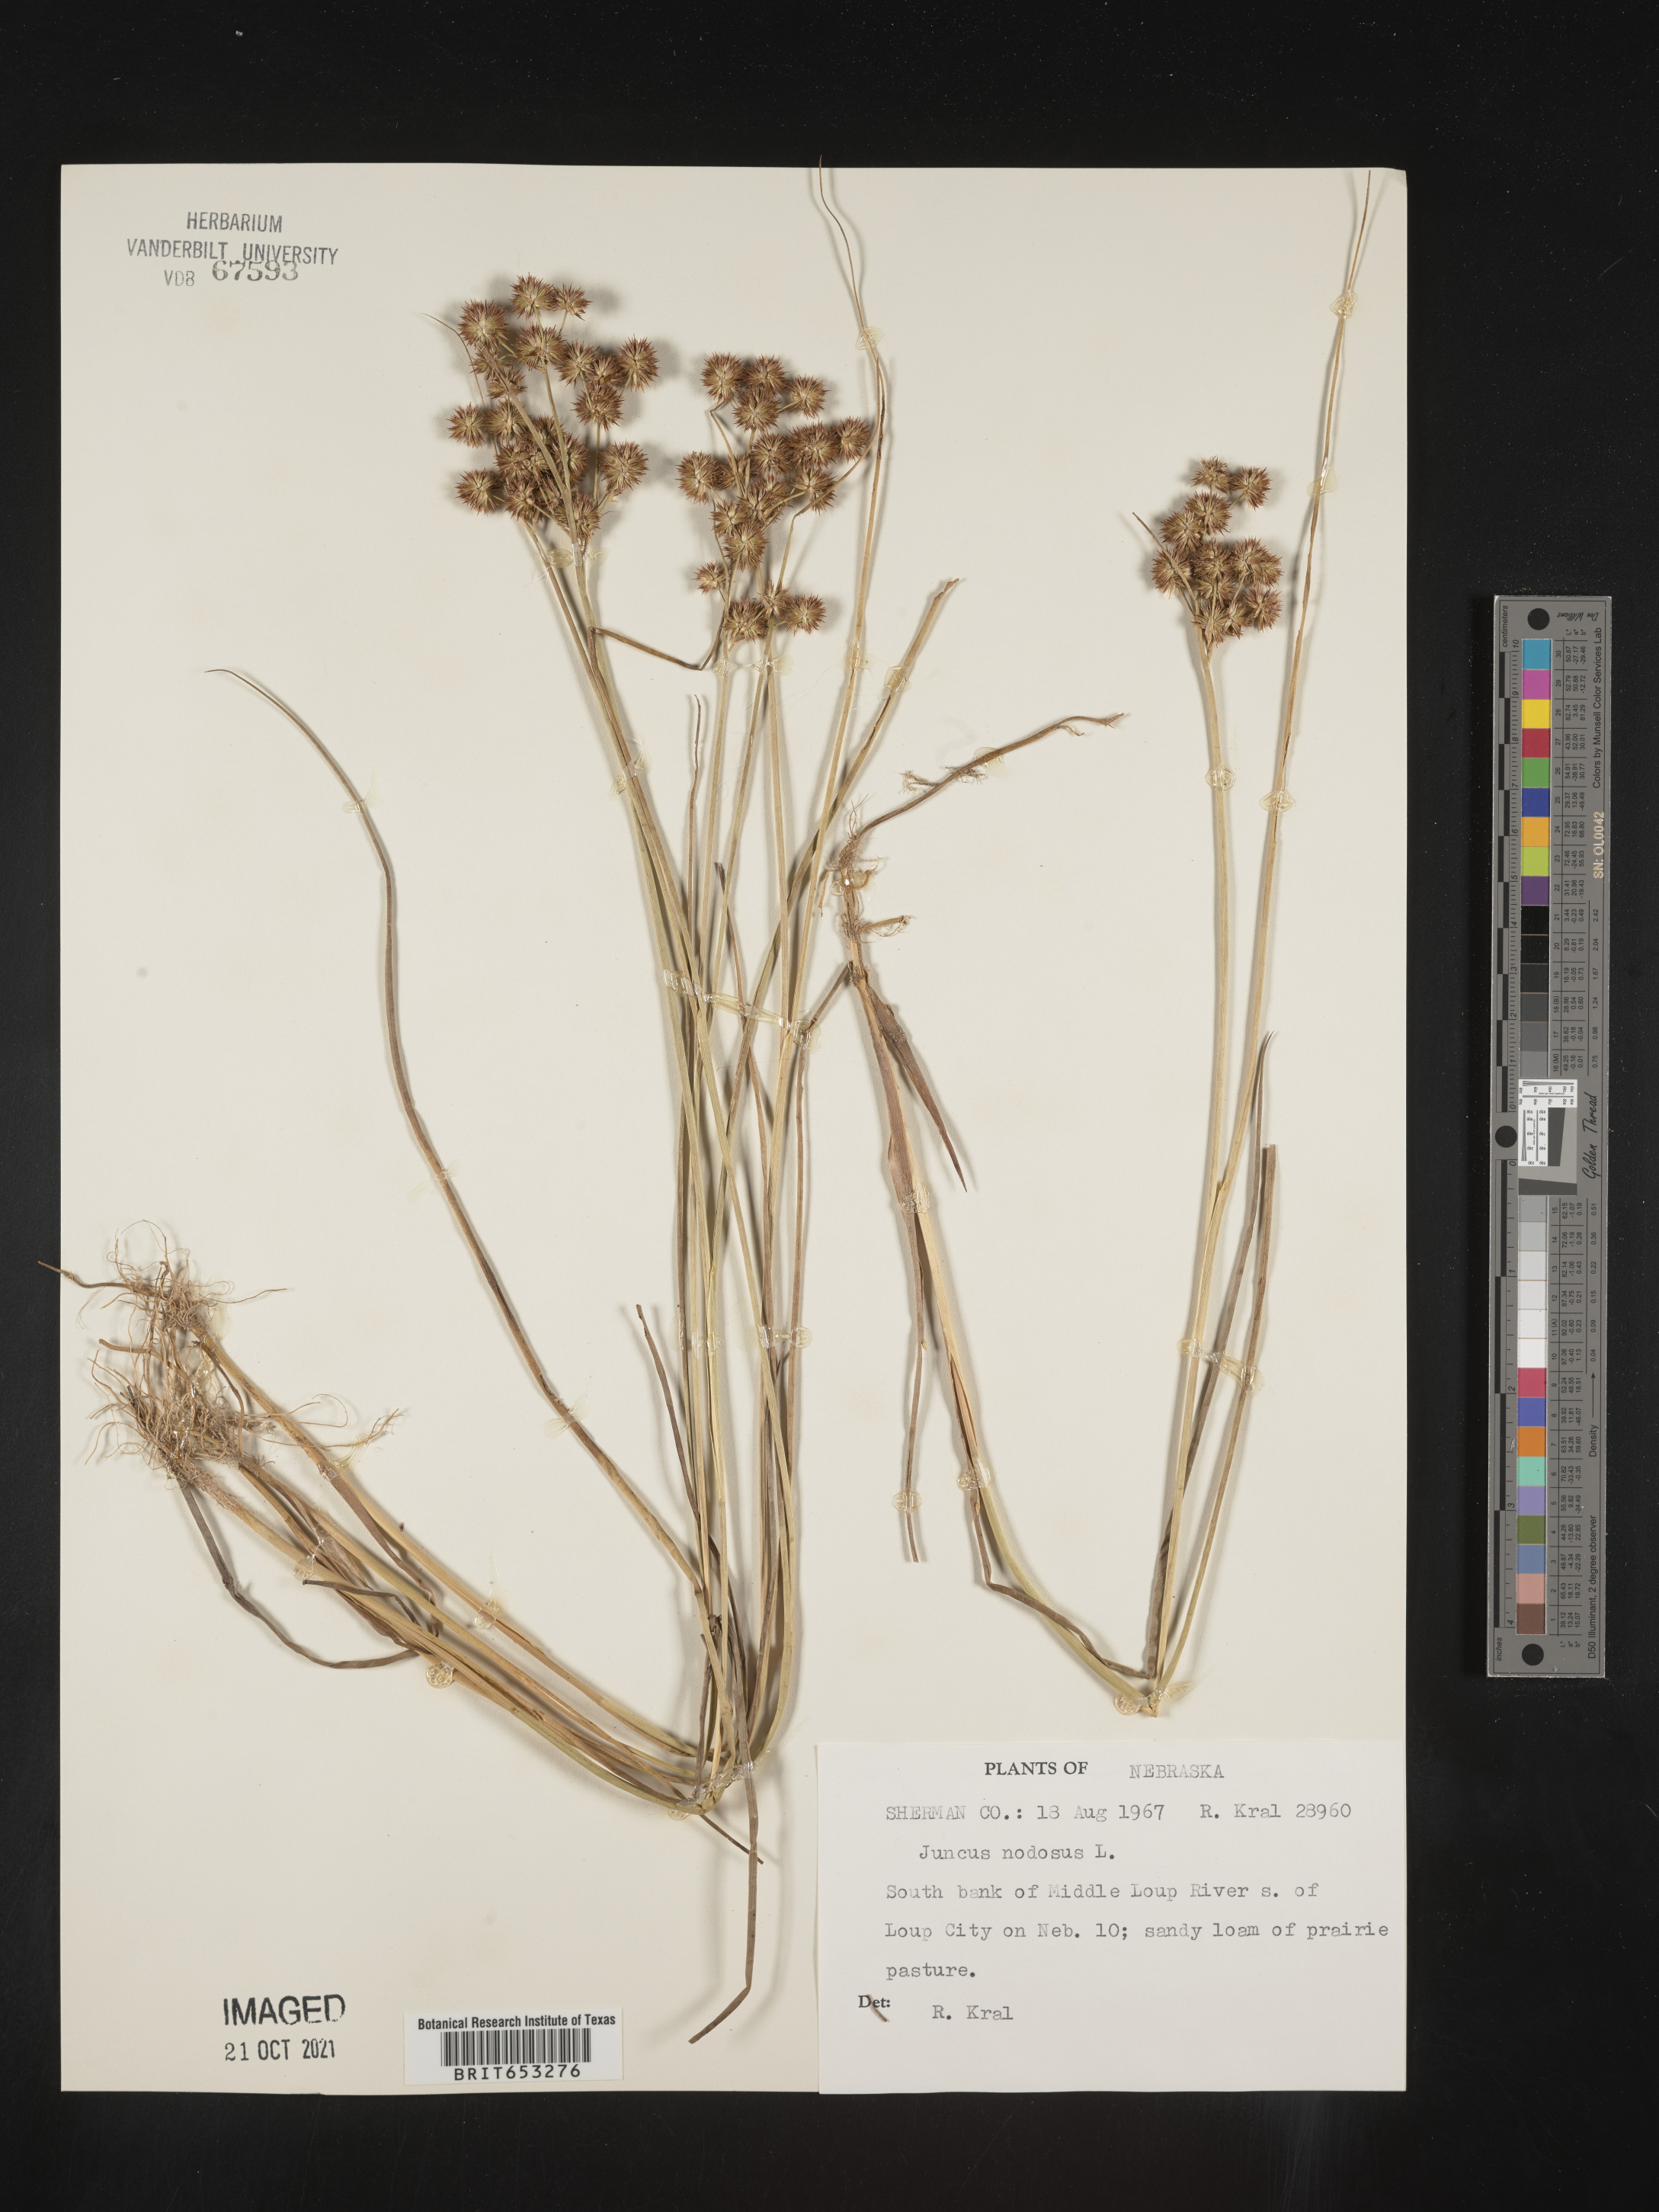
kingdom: Plantae
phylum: Tracheophyta
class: Liliopsida
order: Poales
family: Juncaceae
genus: Juncus
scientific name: Juncus nodosus
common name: Knotted rush
